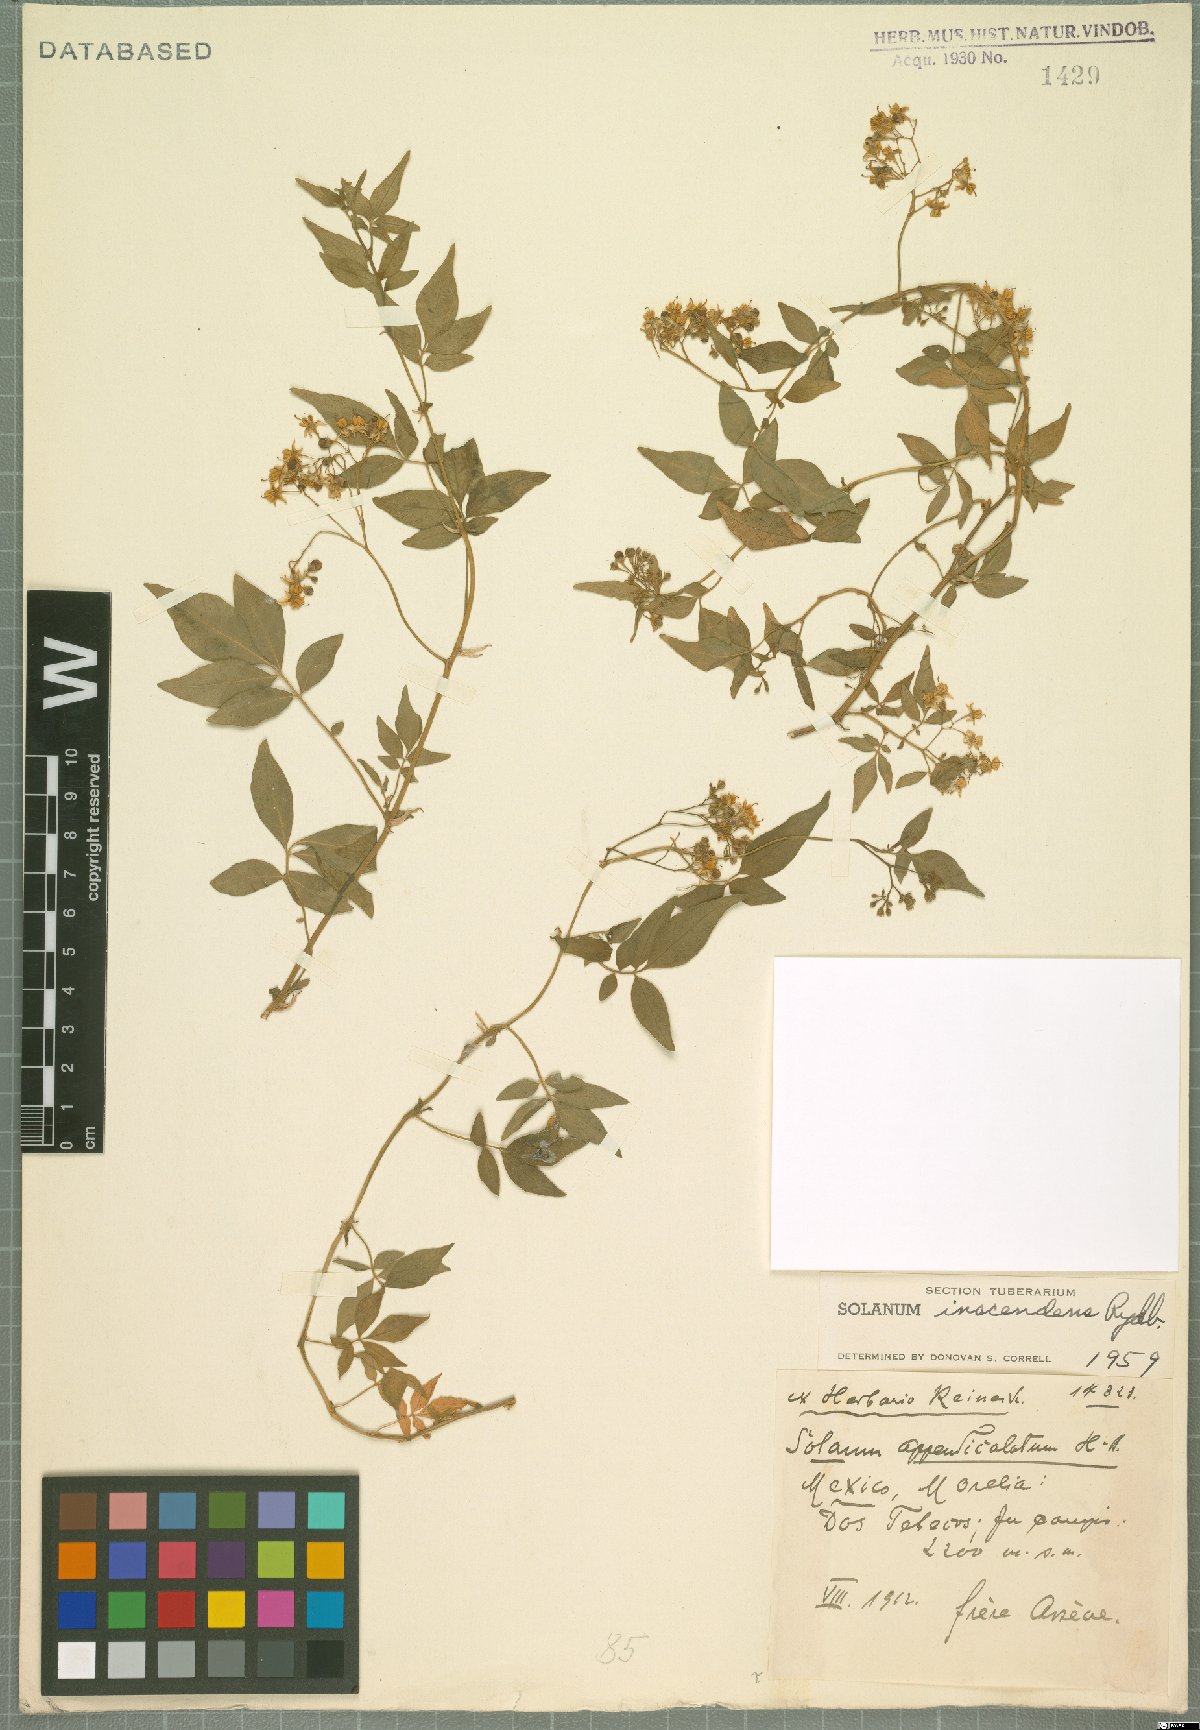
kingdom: Plantae
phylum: Tracheophyta
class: Magnoliopsida
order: Solanales
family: Solanaceae
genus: Solanum
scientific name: Solanum appendiculatum
